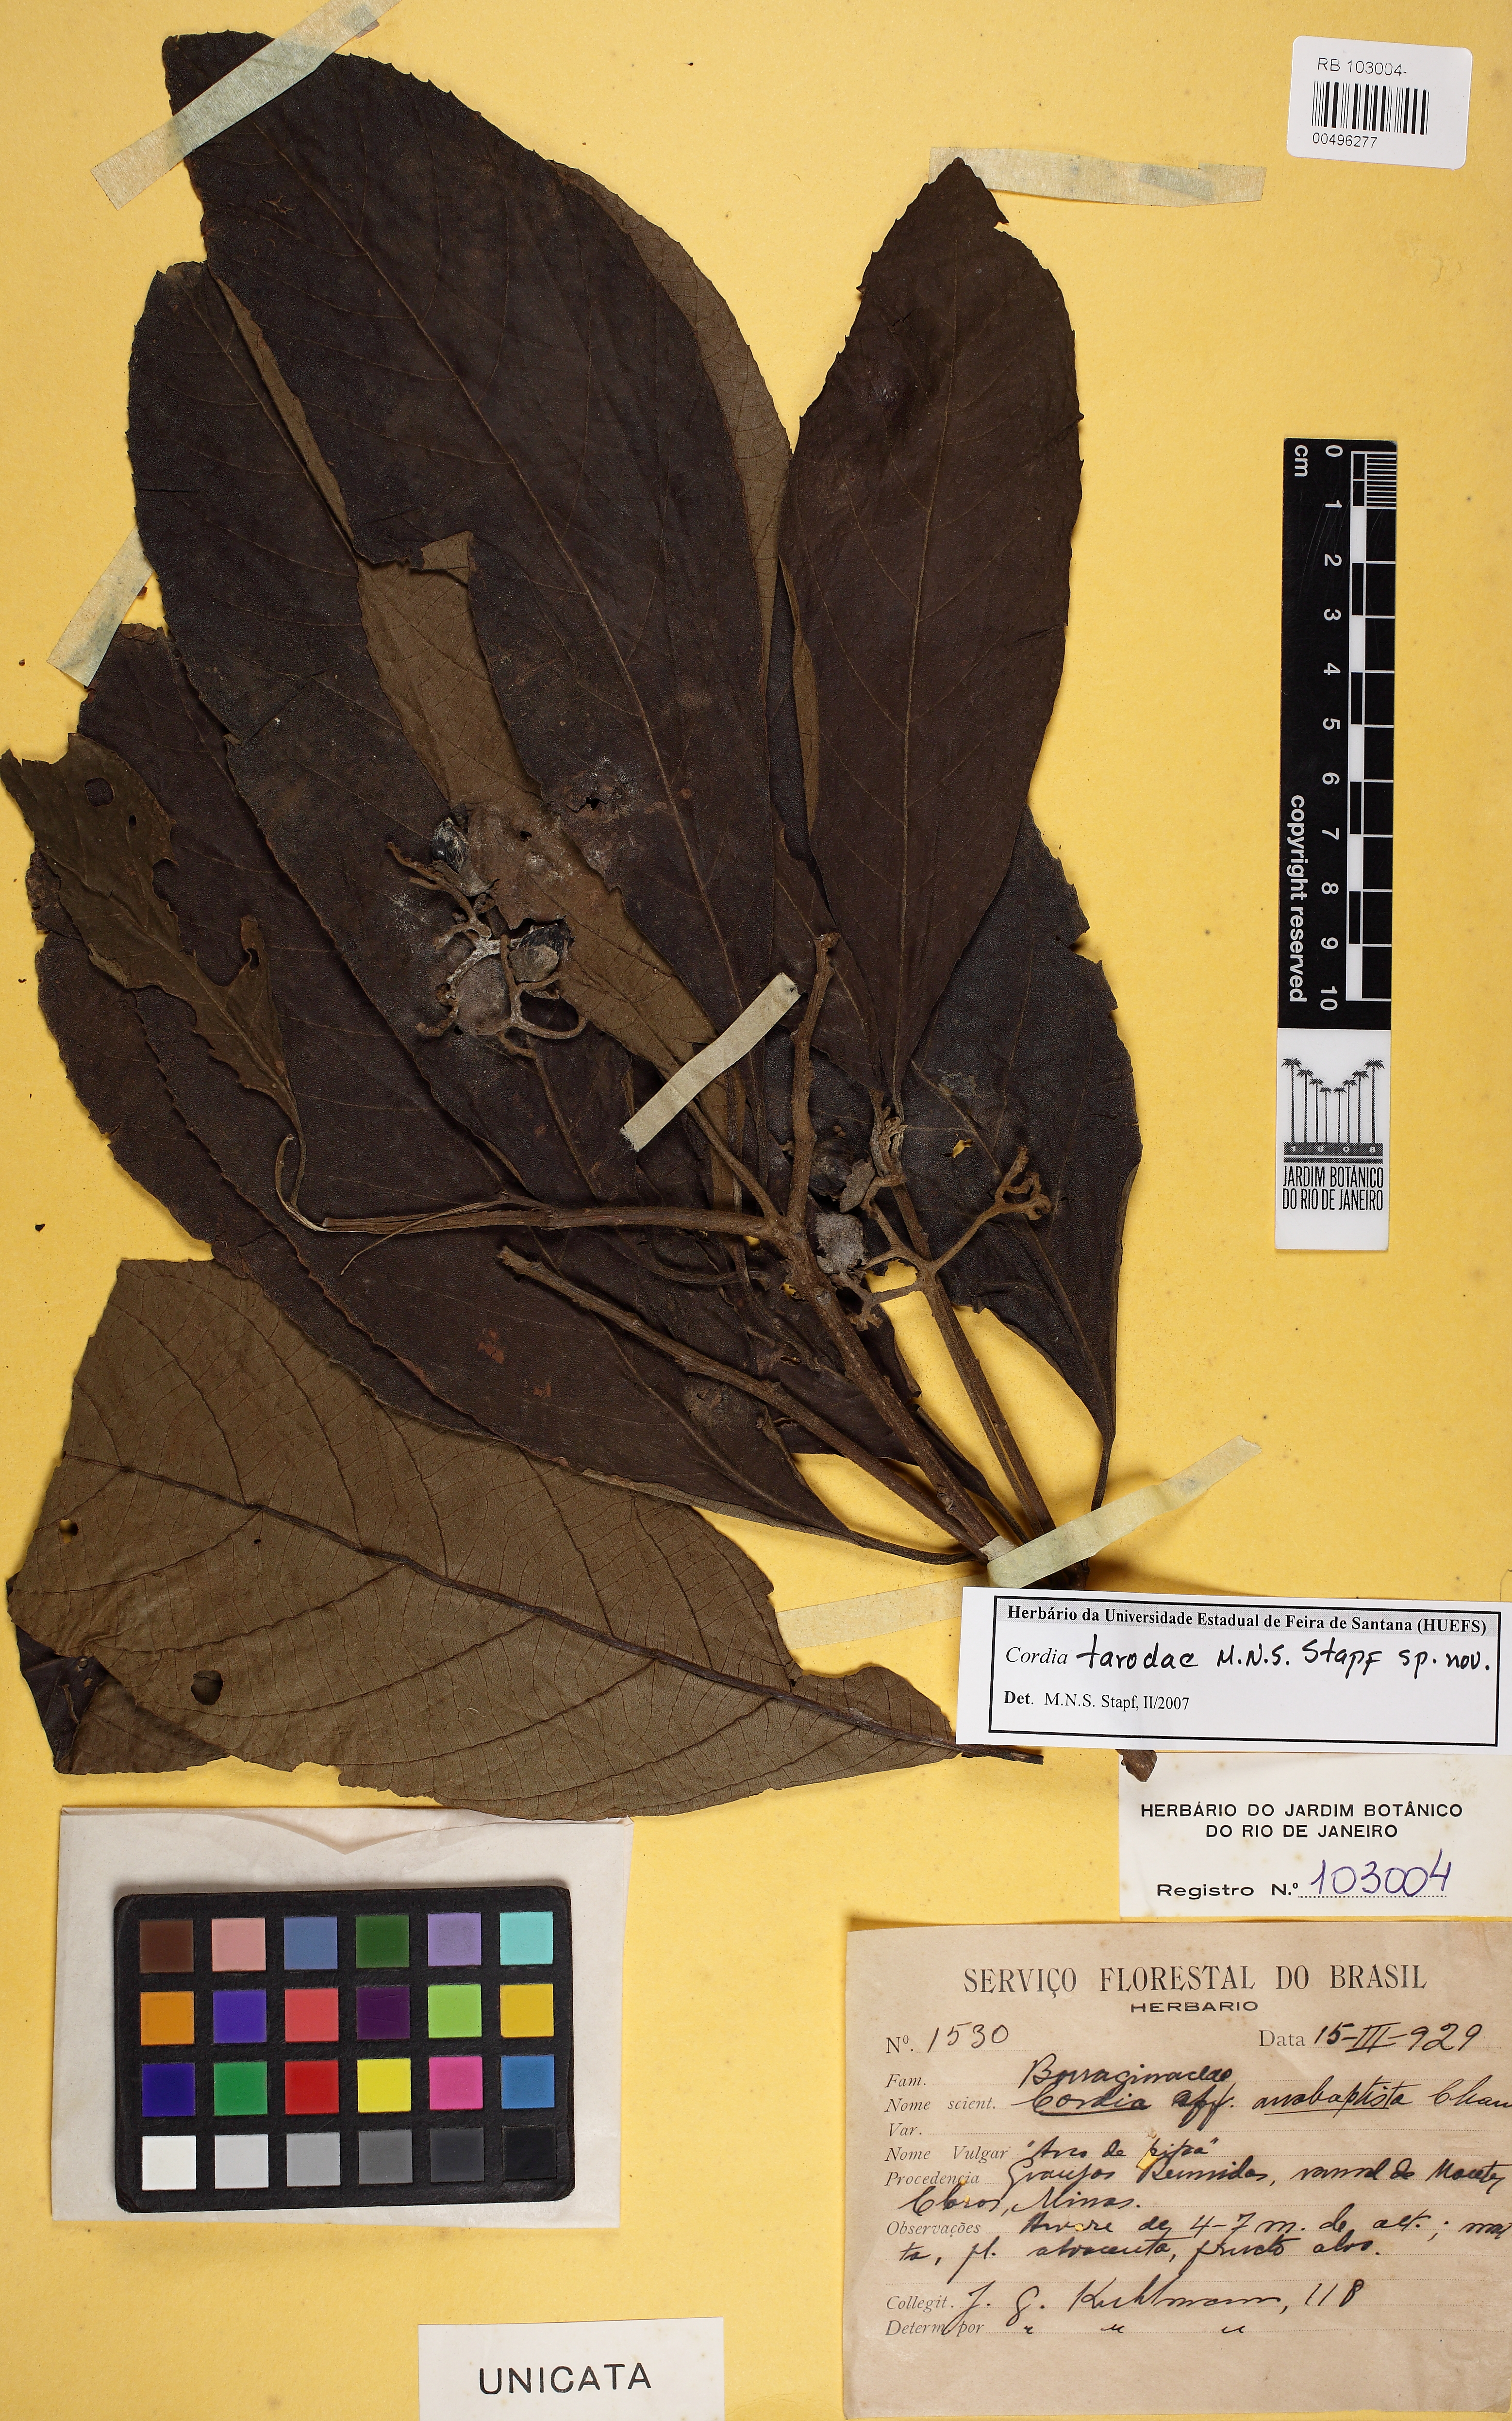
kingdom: Plantae
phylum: Tracheophyta
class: Magnoliopsida
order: Boraginales
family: Cordiaceae
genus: Cordia
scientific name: Cordia tarodae
